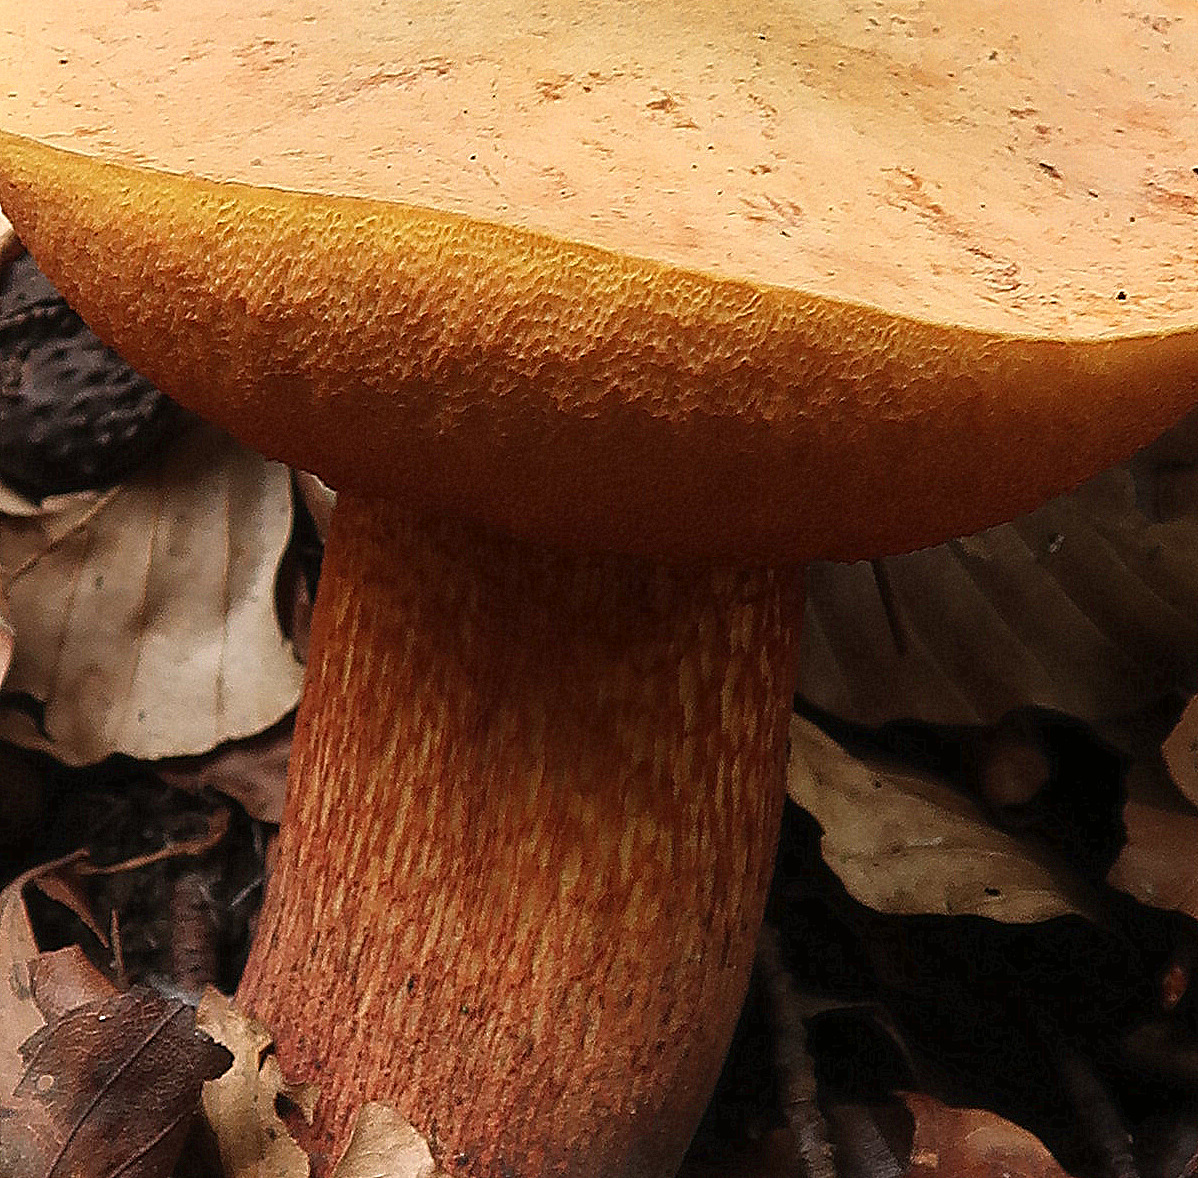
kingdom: Fungi
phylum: Basidiomycota
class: Agaricomycetes
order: Boletales
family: Boletaceae
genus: Suillellus
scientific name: Suillellus luridus
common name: netstokket indigorørhat
